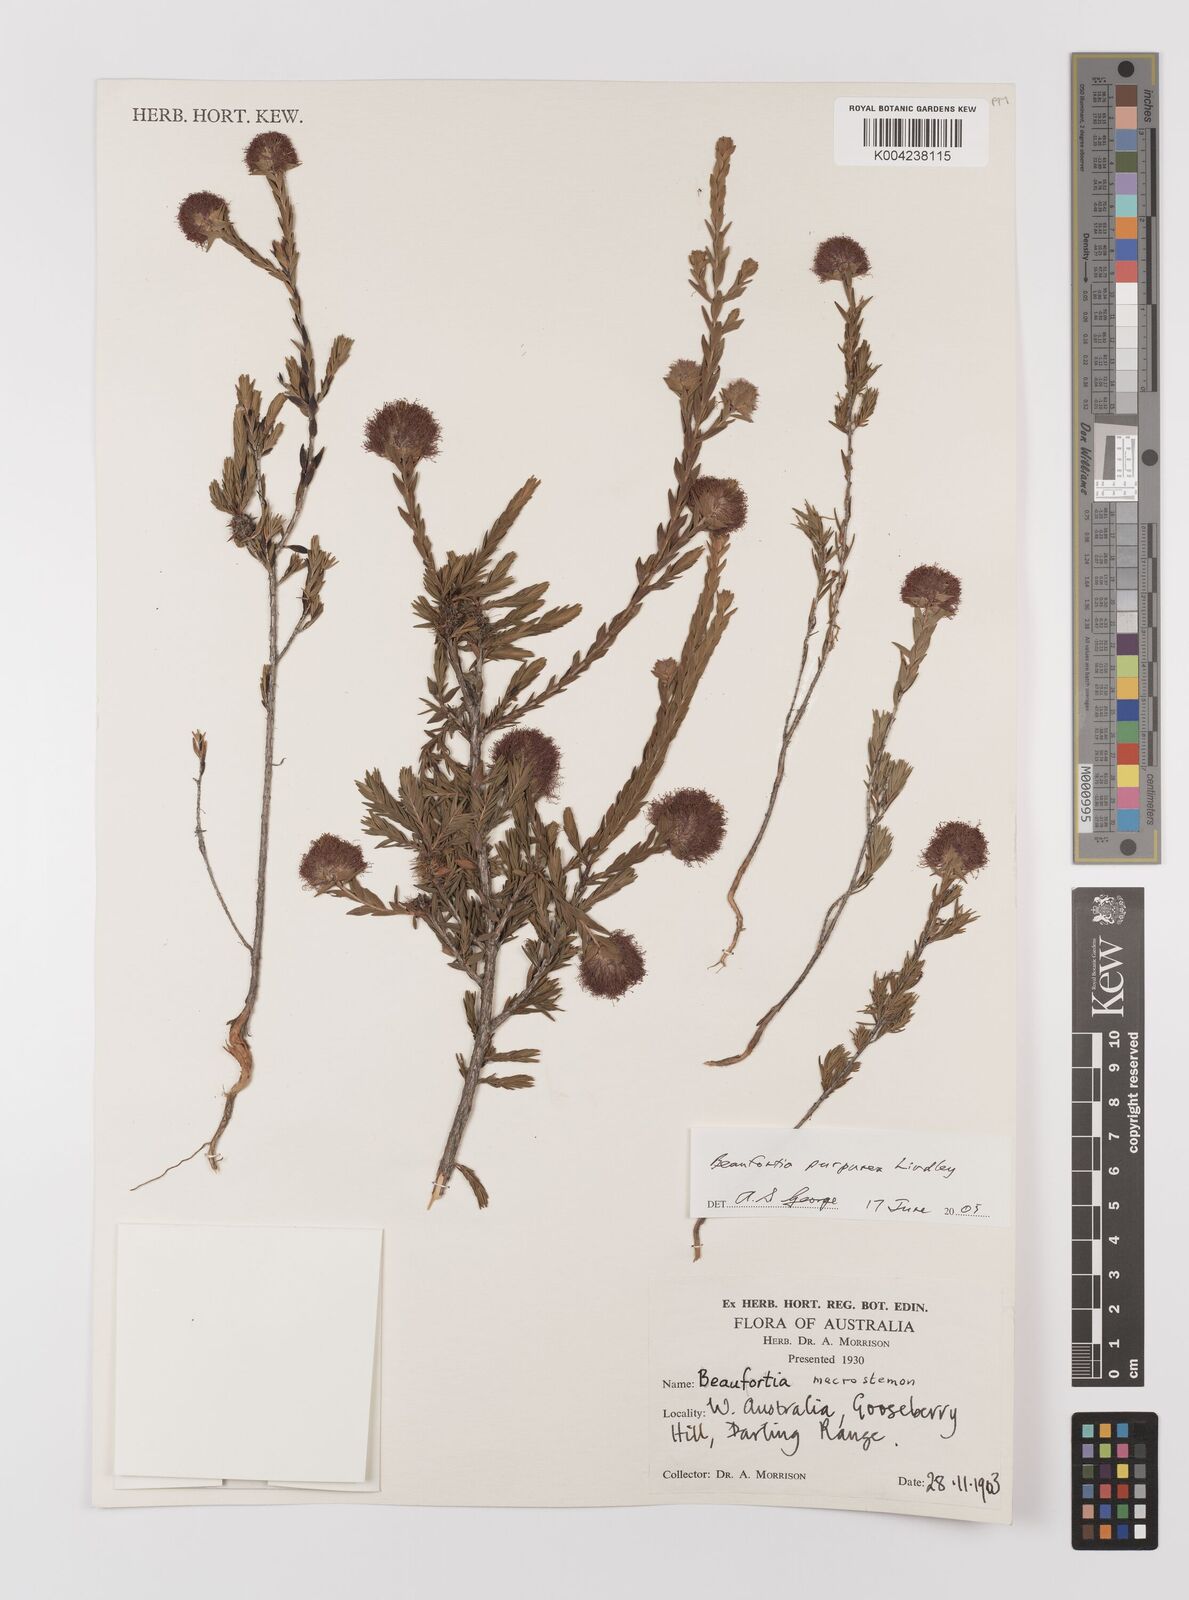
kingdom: Plantae
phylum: Tracheophyta
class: Magnoliopsida
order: Myrtales
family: Myrtaceae
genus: Melaleuca
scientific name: Melaleuca purpurea
